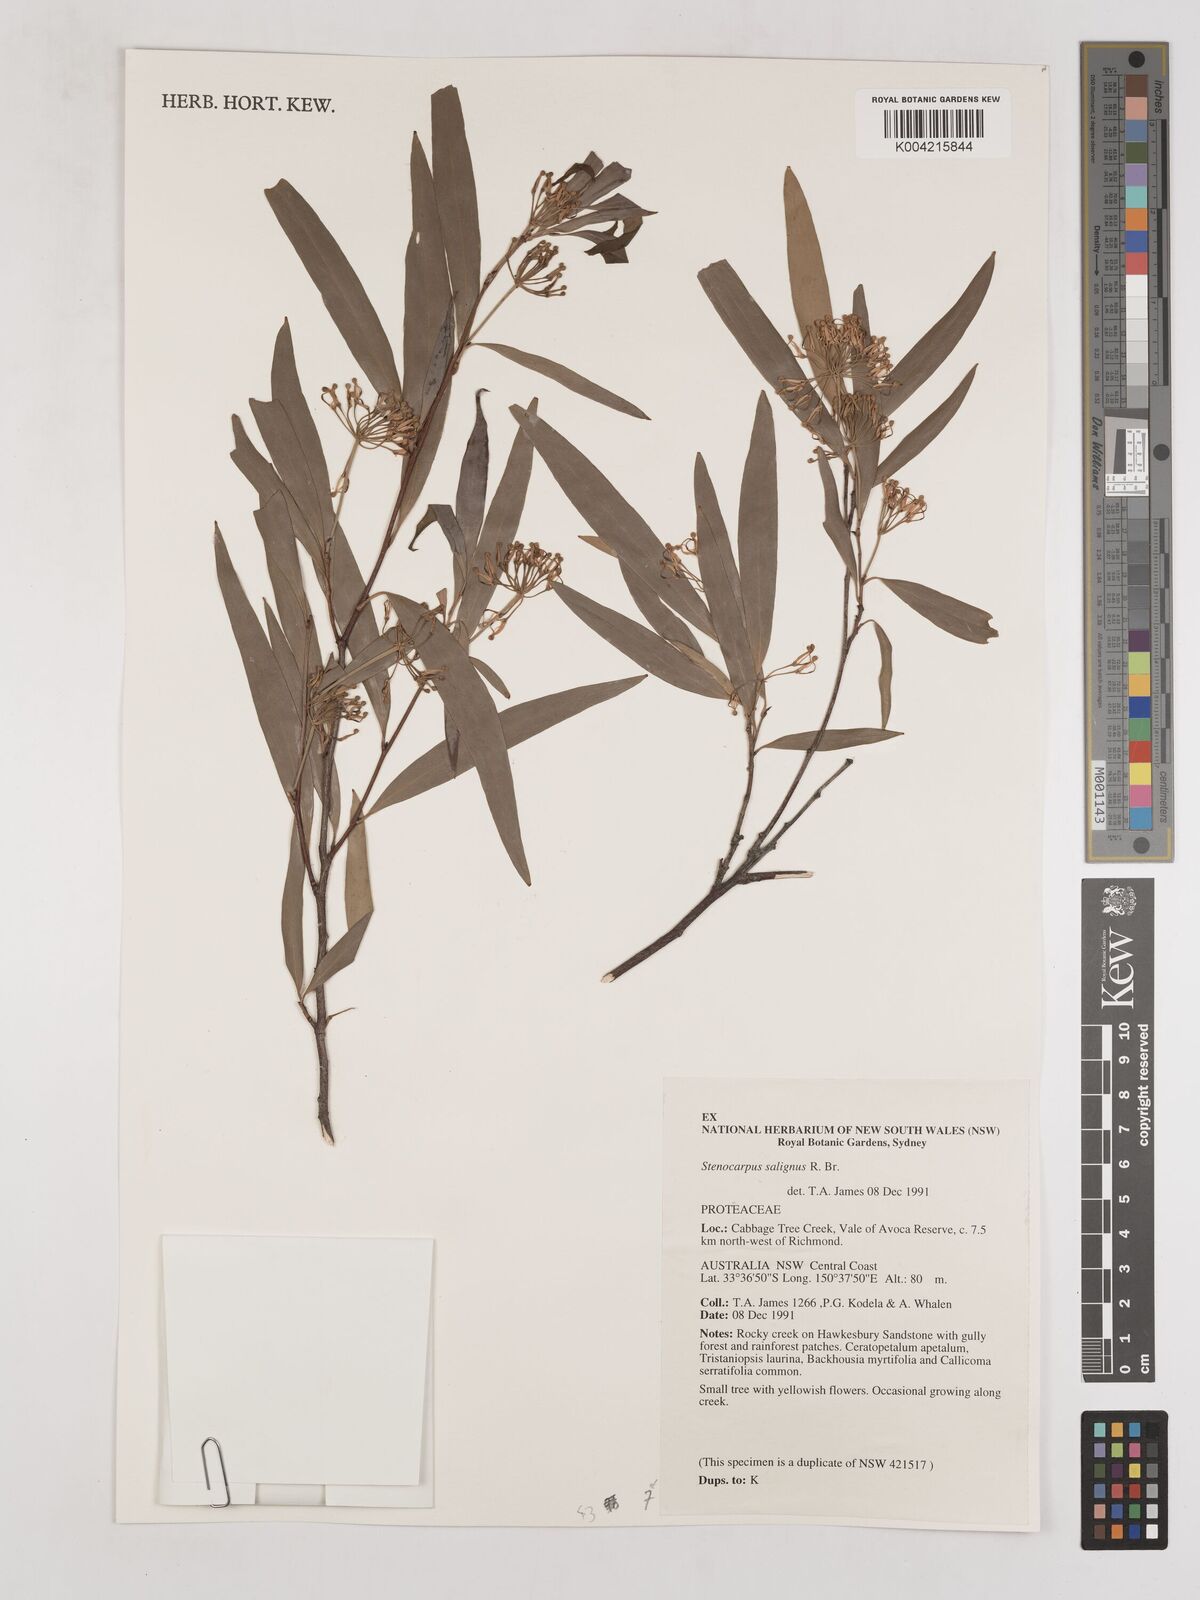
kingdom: Plantae
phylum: Tracheophyta
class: Magnoliopsida
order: Proteales
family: Proteaceae
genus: Stenocarpus
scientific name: Stenocarpus salignus
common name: Red silky-oak
